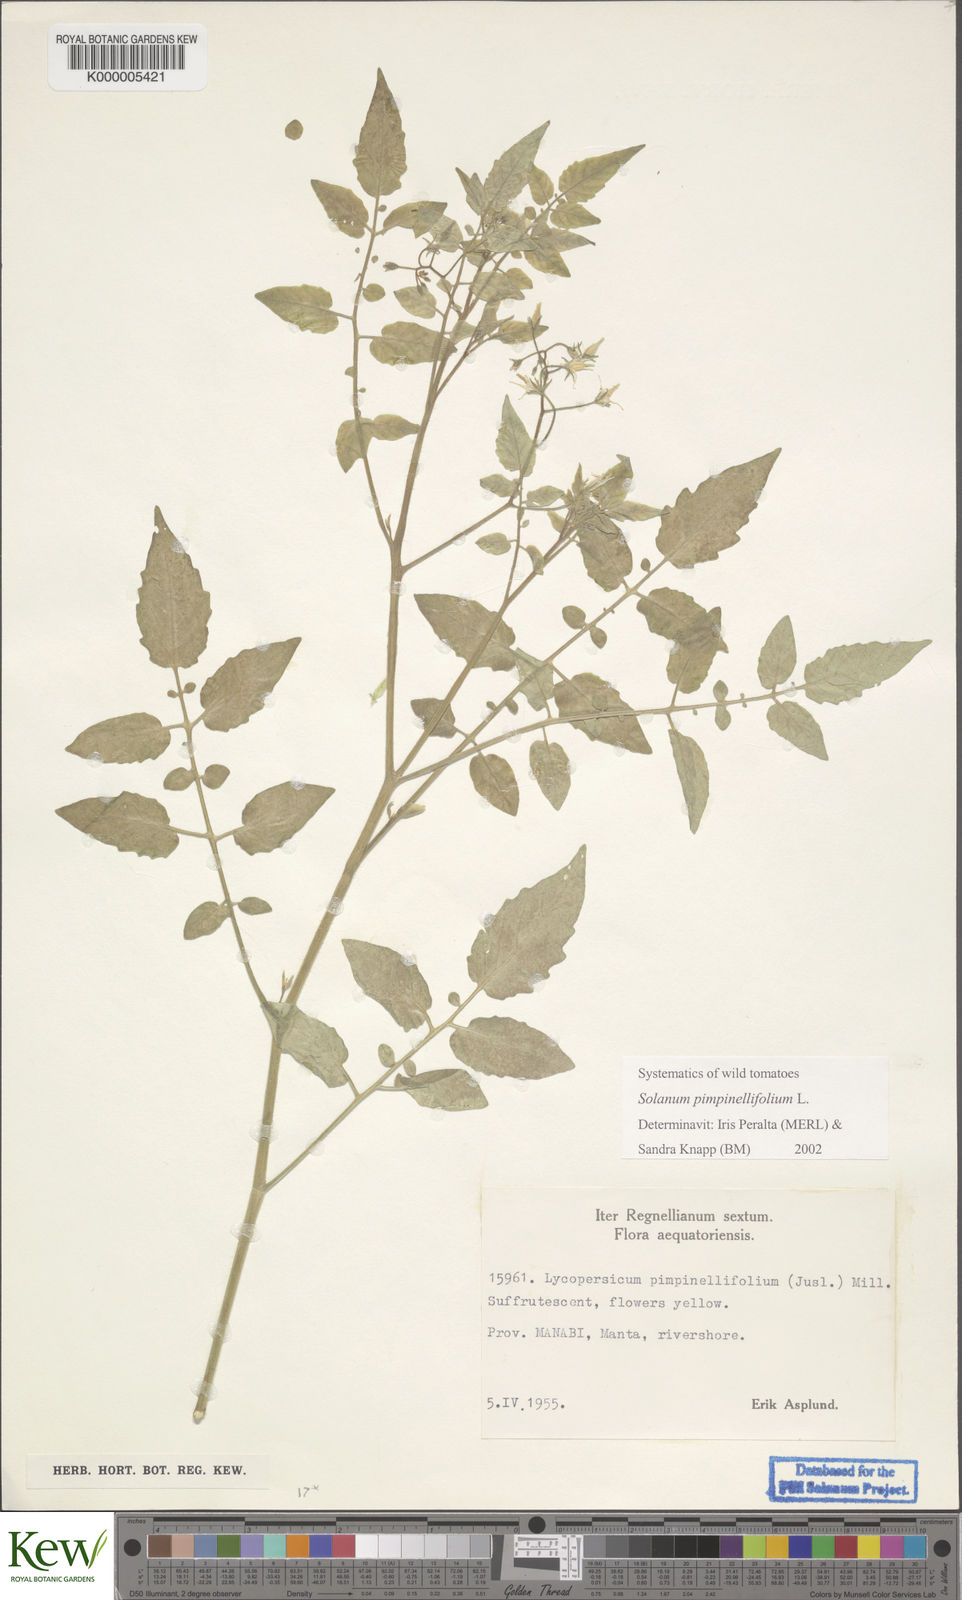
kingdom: Plantae
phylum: Tracheophyta
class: Magnoliopsida
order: Solanales
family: Solanaceae
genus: Solanum
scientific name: Solanum pimpinellifolium
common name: Currant-tomato
